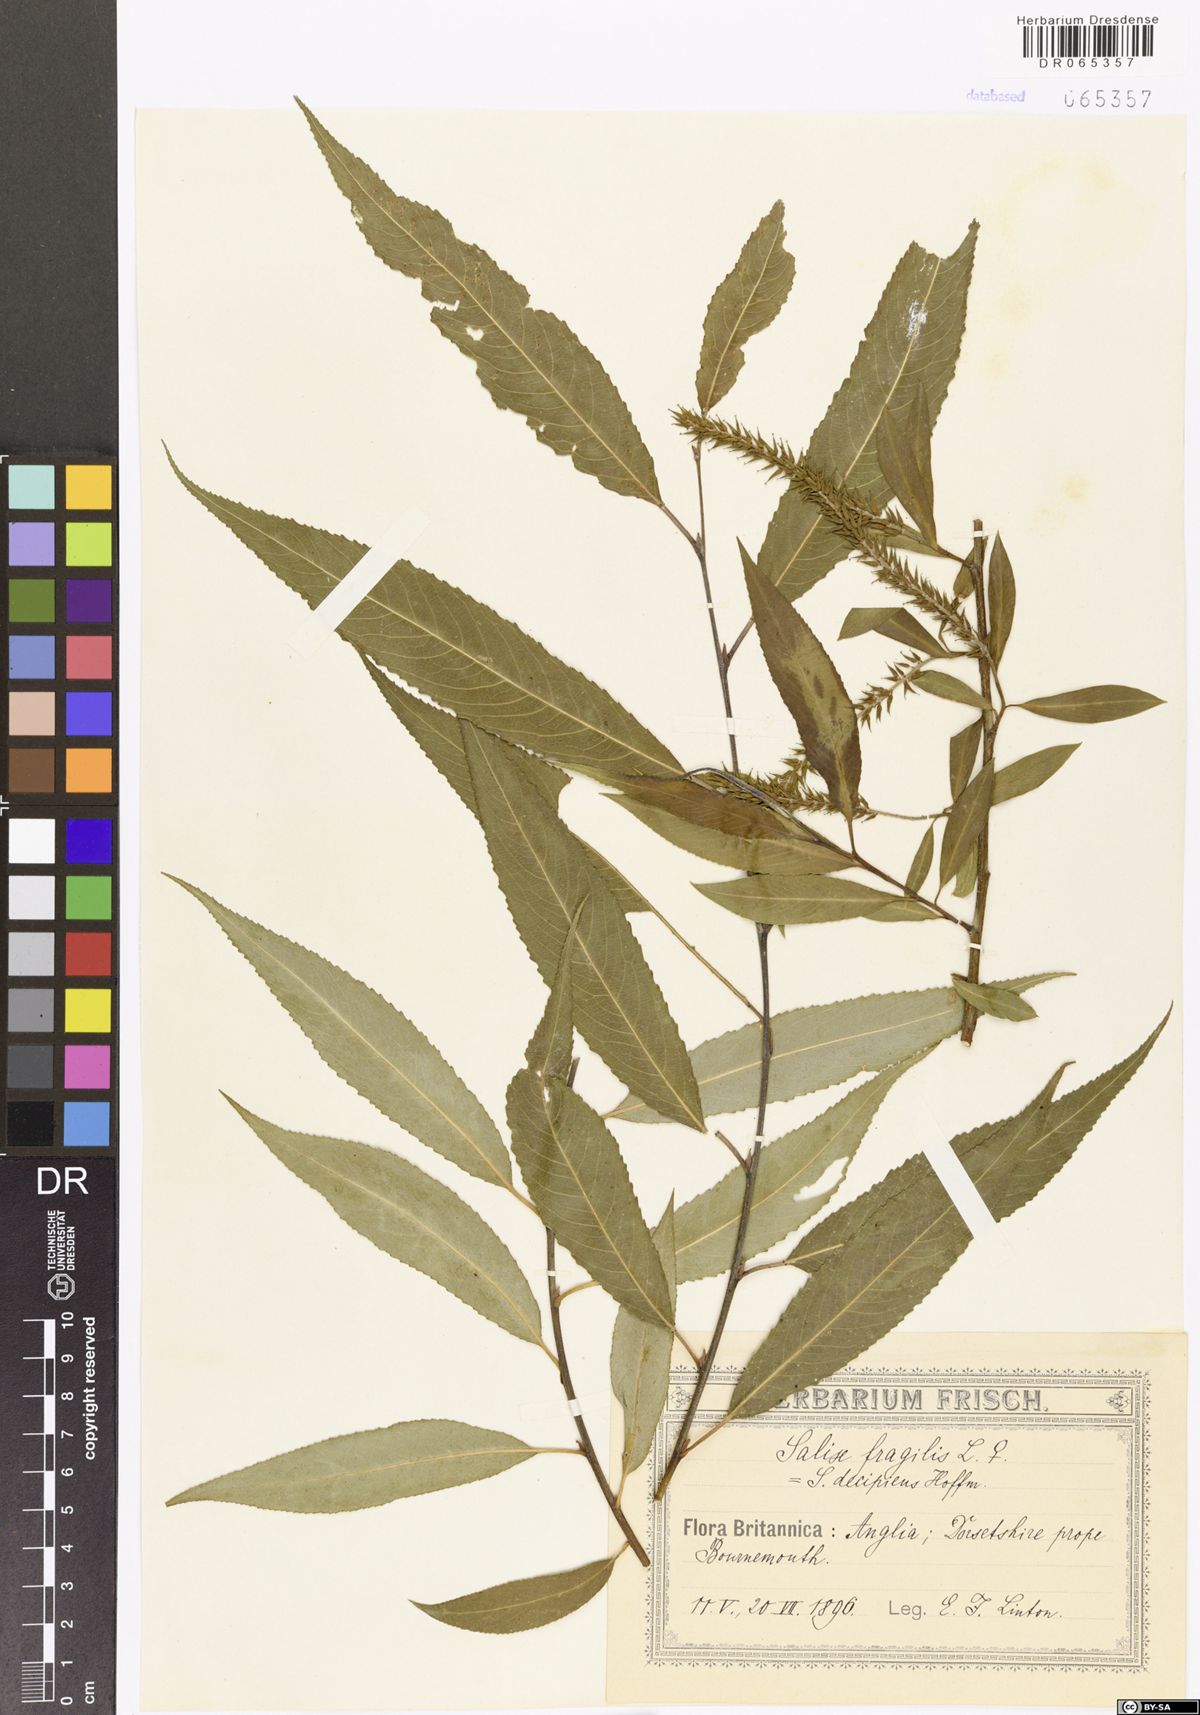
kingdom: Plantae
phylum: Tracheophyta
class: Magnoliopsida
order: Malpighiales
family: Salicaceae
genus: Salix
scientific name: Salix fragilis
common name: Crack willow
